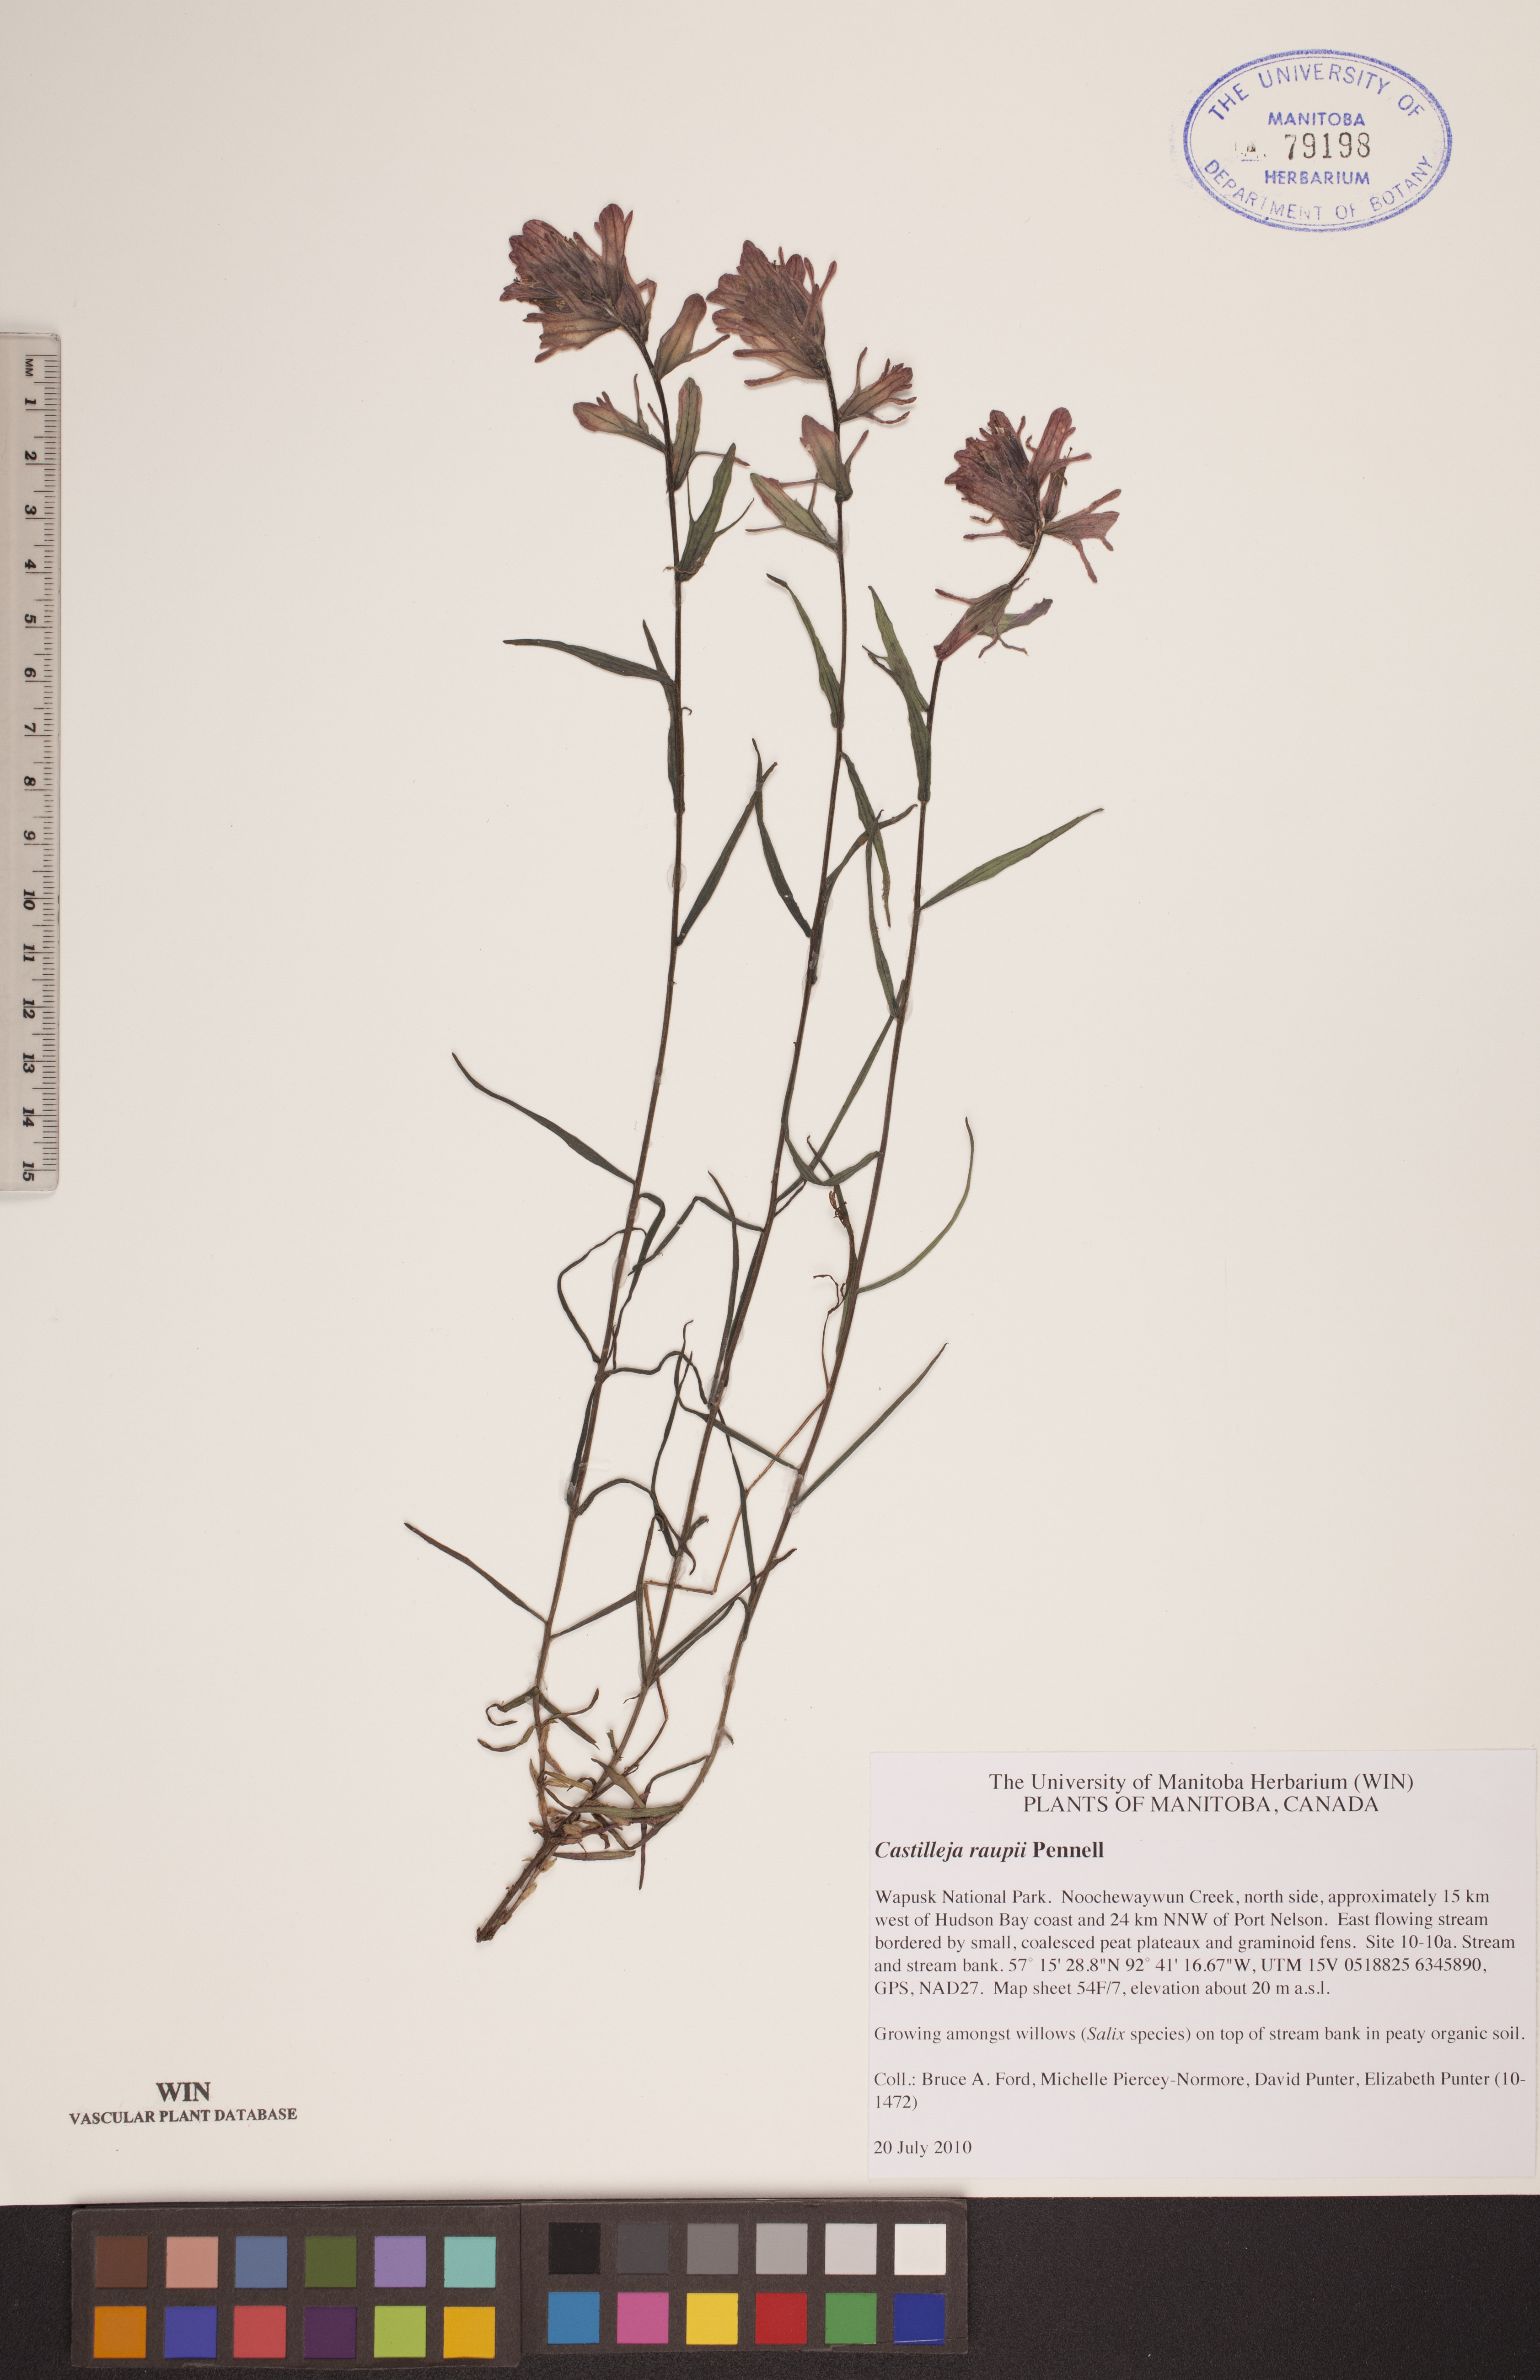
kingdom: Plantae
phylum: Tracheophyta
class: Magnoliopsida
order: Lamiales
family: Orobanchaceae
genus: Castilleja
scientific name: Castilleja raupii
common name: Raup's paintbrush
